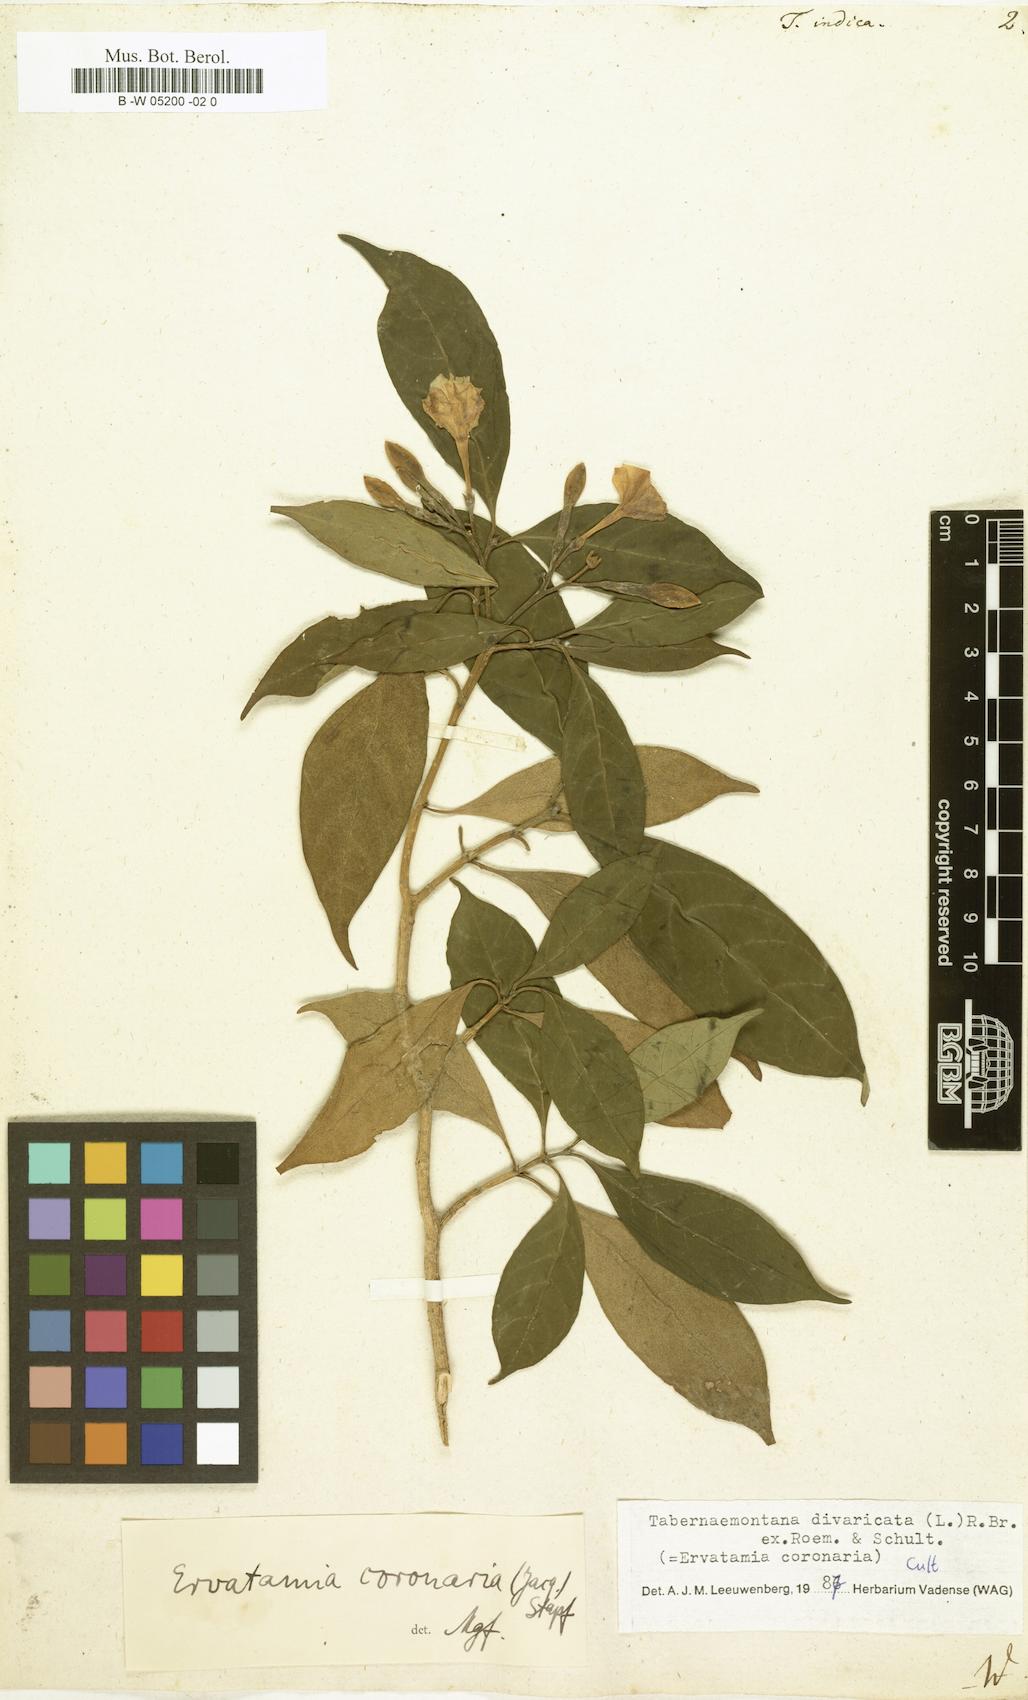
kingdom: Plantae
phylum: Tracheophyta
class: Magnoliopsida
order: Gentianales
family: Apocynaceae
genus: Tabernaemontana
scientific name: Tabernaemontana indica
